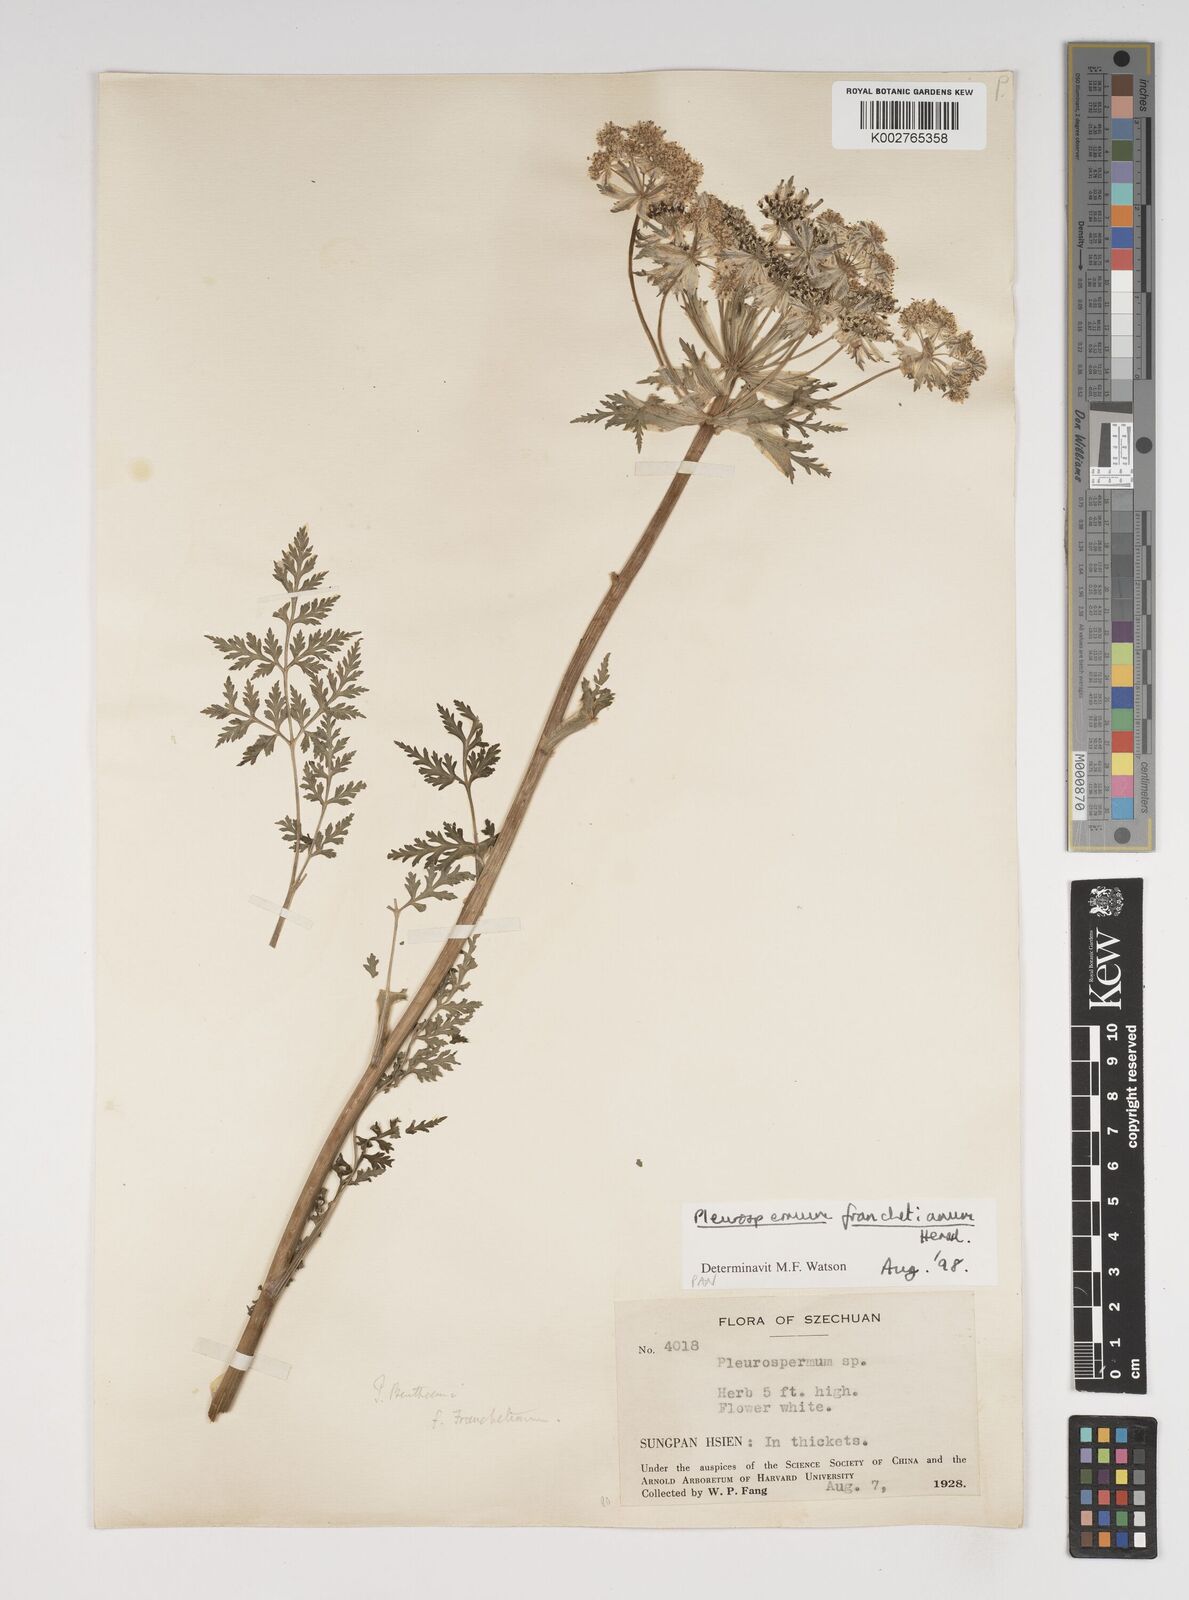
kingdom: Plantae
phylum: Tracheophyta
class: Magnoliopsida
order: Apiales
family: Apiaceae
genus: Hymenidium
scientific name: Hymenidium
